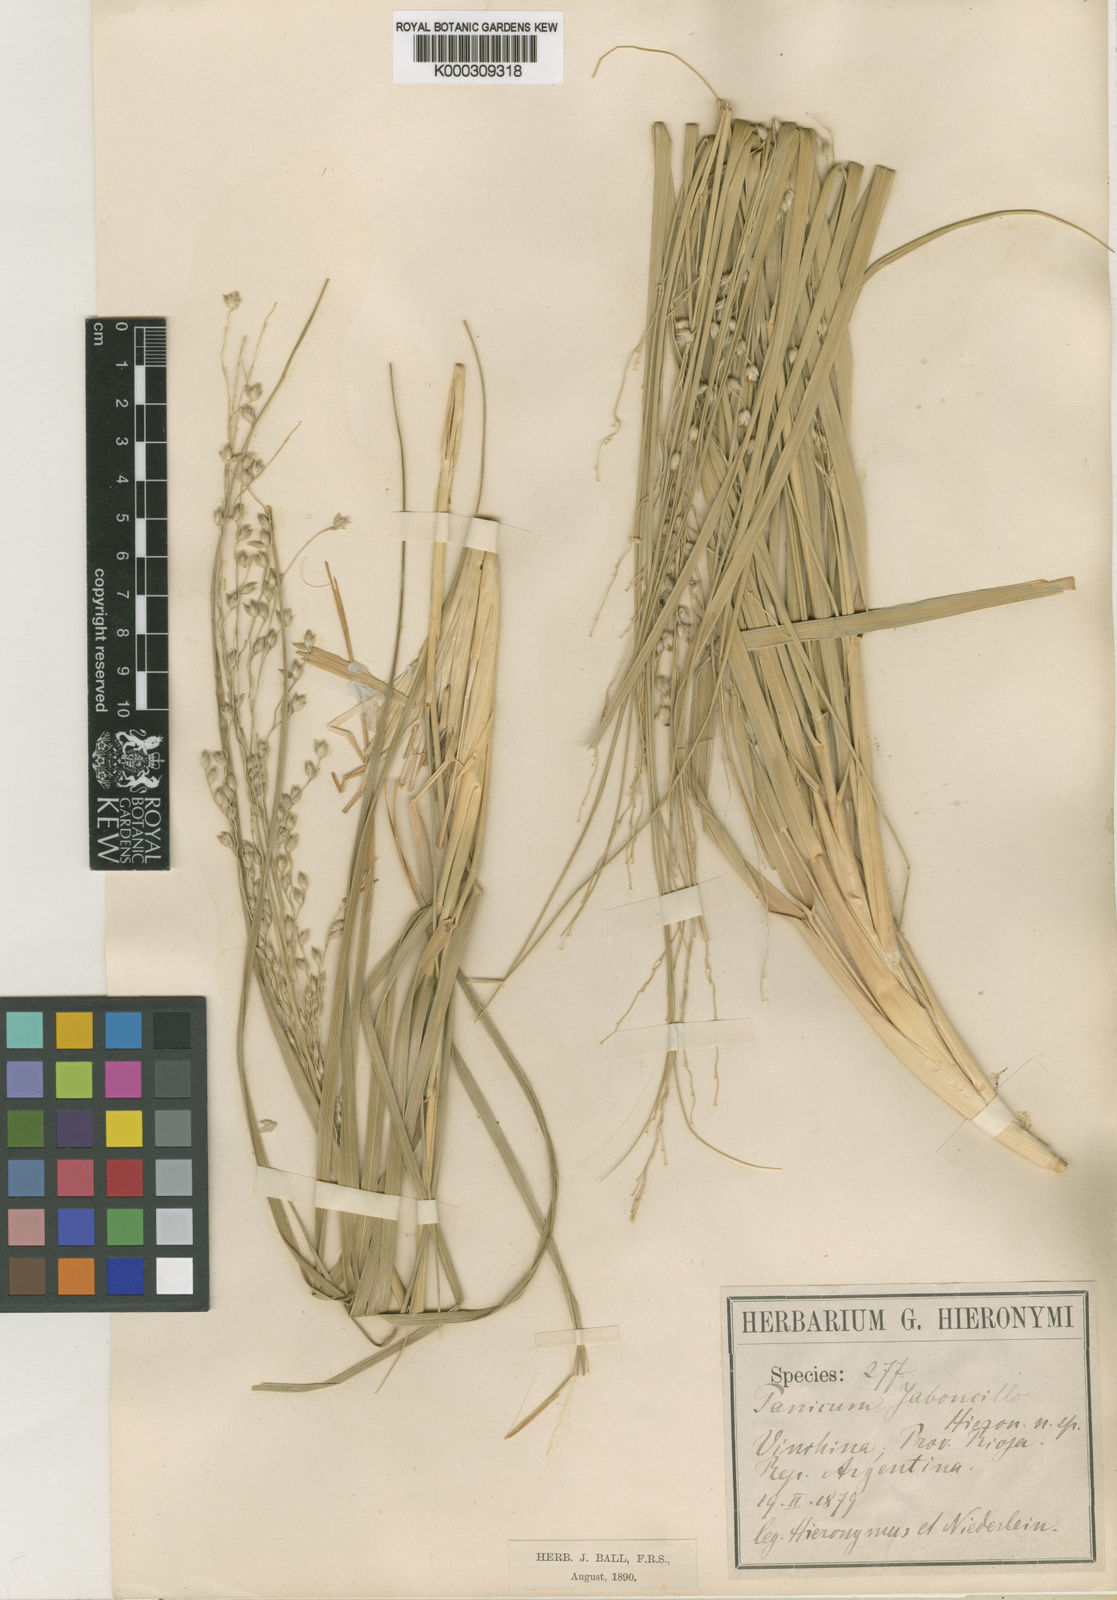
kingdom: Plantae
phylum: Tracheophyta
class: Liliopsida
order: Poales
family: Poaceae
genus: Panicum
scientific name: Panicum chloroleucum
